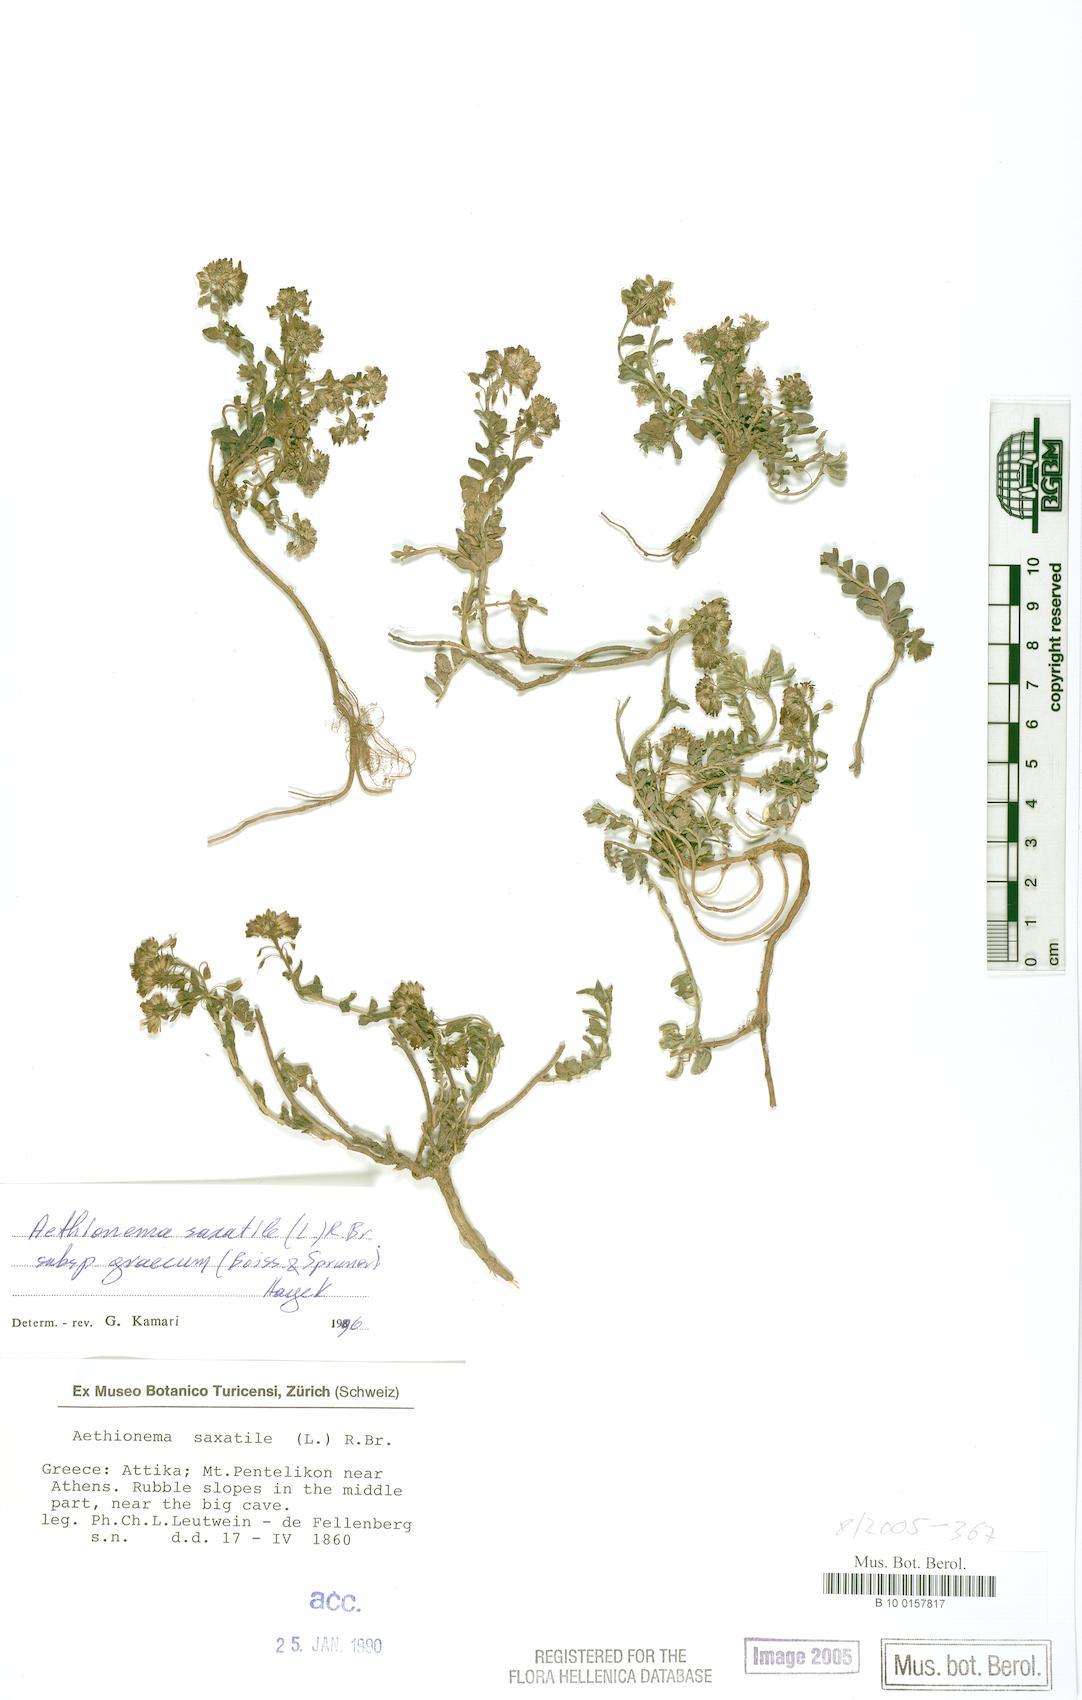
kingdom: Plantae
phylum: Tracheophyta
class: Magnoliopsida
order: Brassicales
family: Brassicaceae
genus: Aethionema
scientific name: Aethionema saxatile
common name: Burnt candytuft
